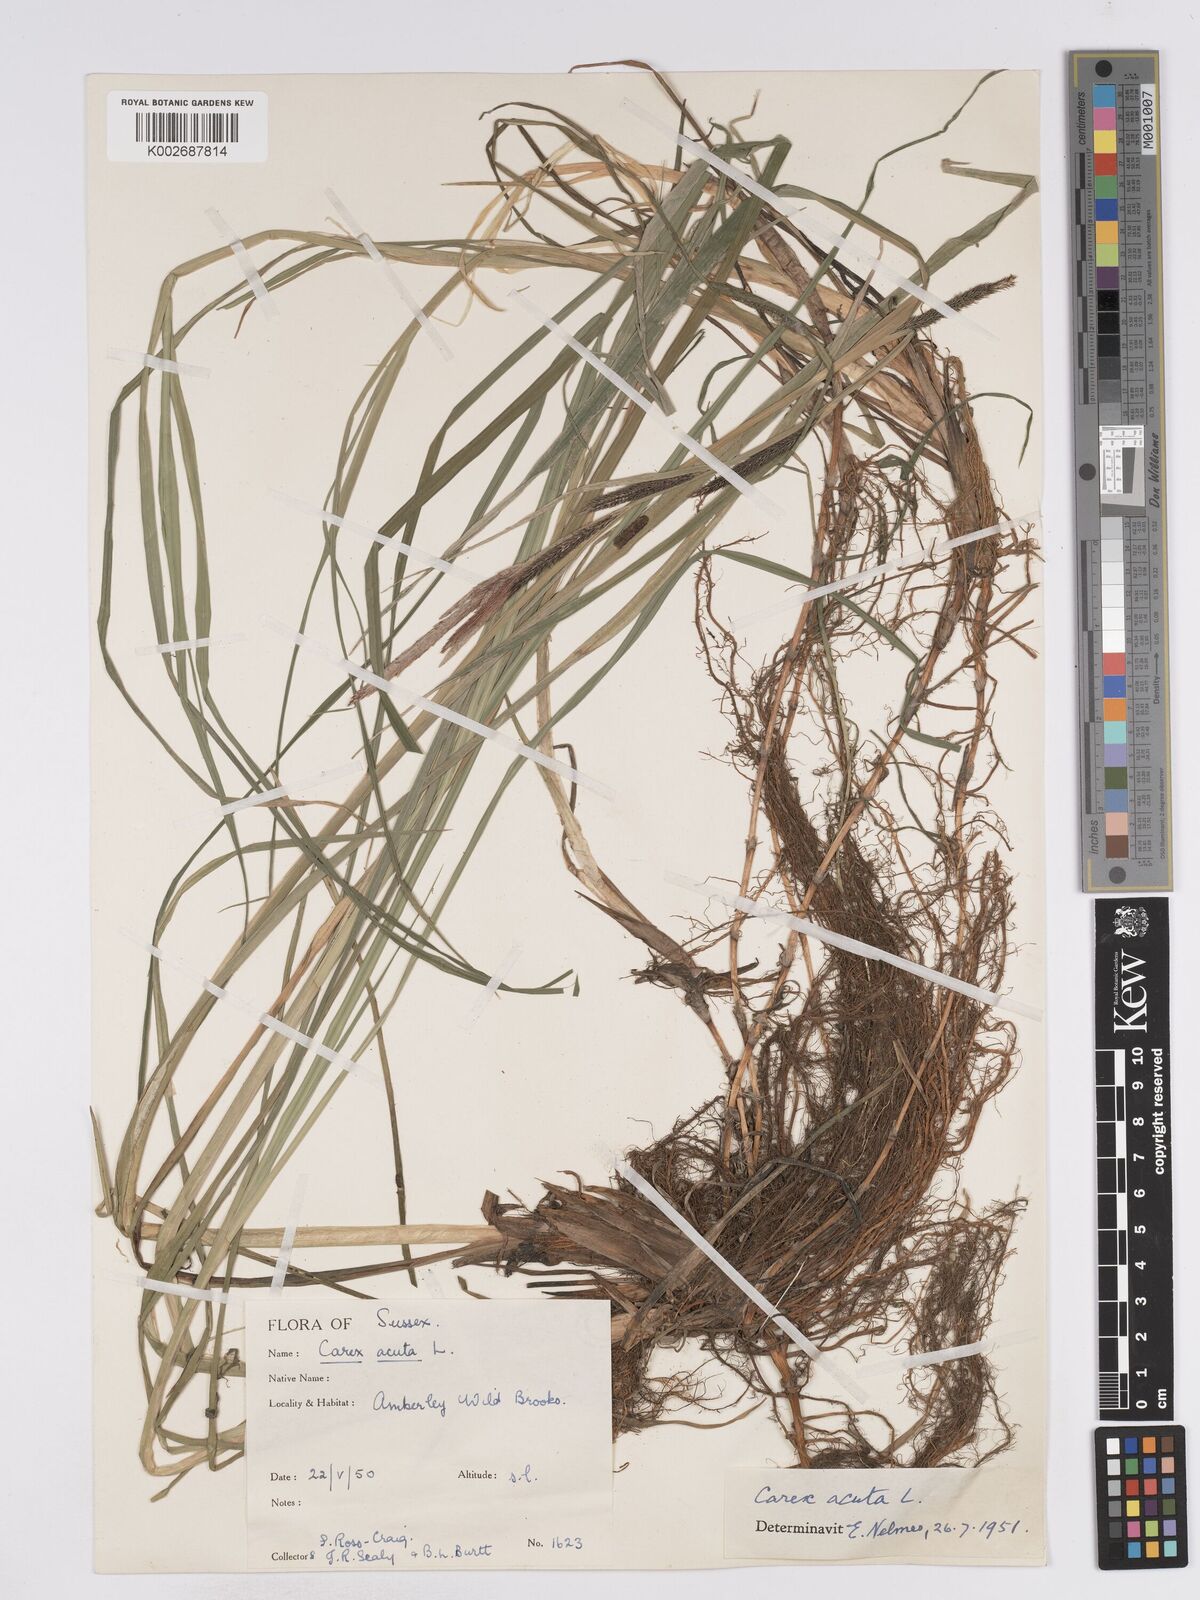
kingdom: Plantae
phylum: Tracheophyta
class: Liliopsida
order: Poales
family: Cyperaceae
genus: Carex
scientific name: Carex acuta
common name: Slender tufted-sedge
